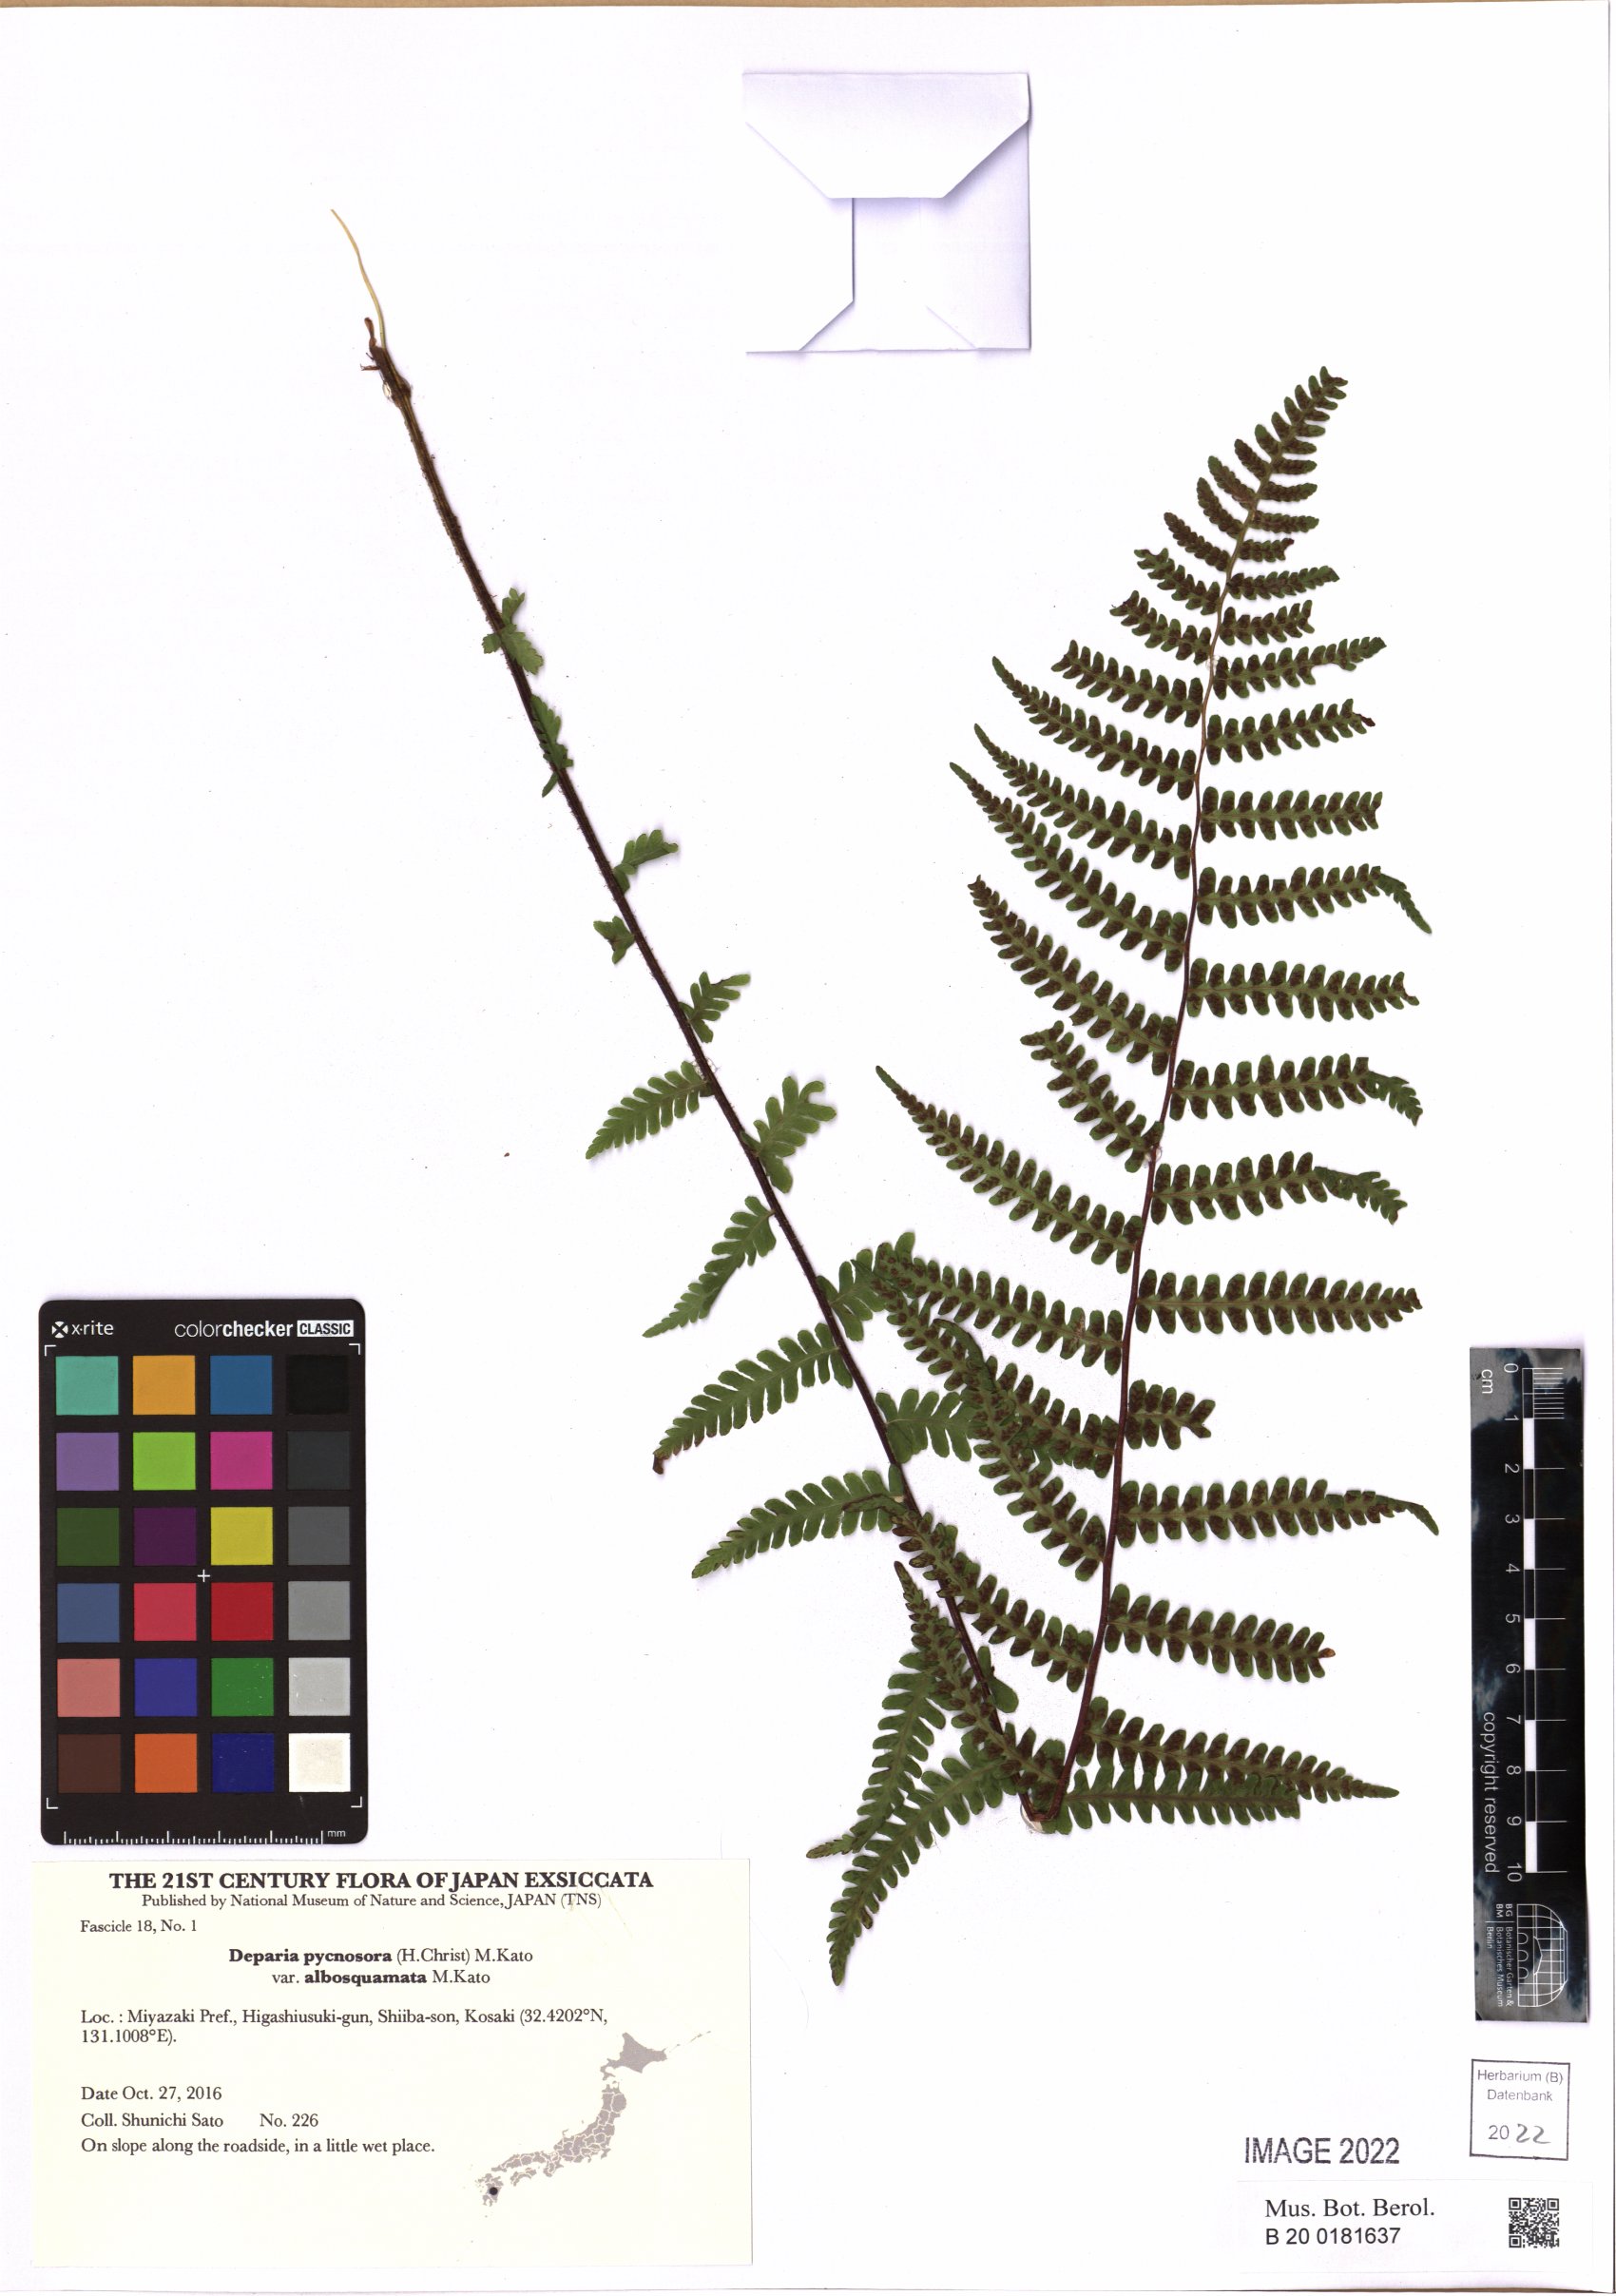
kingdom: Plantae
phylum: Tracheophyta
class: Polypodiopsida
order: Polypodiales
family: Athyriaceae
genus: Deparia
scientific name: Deparia pycnosora
